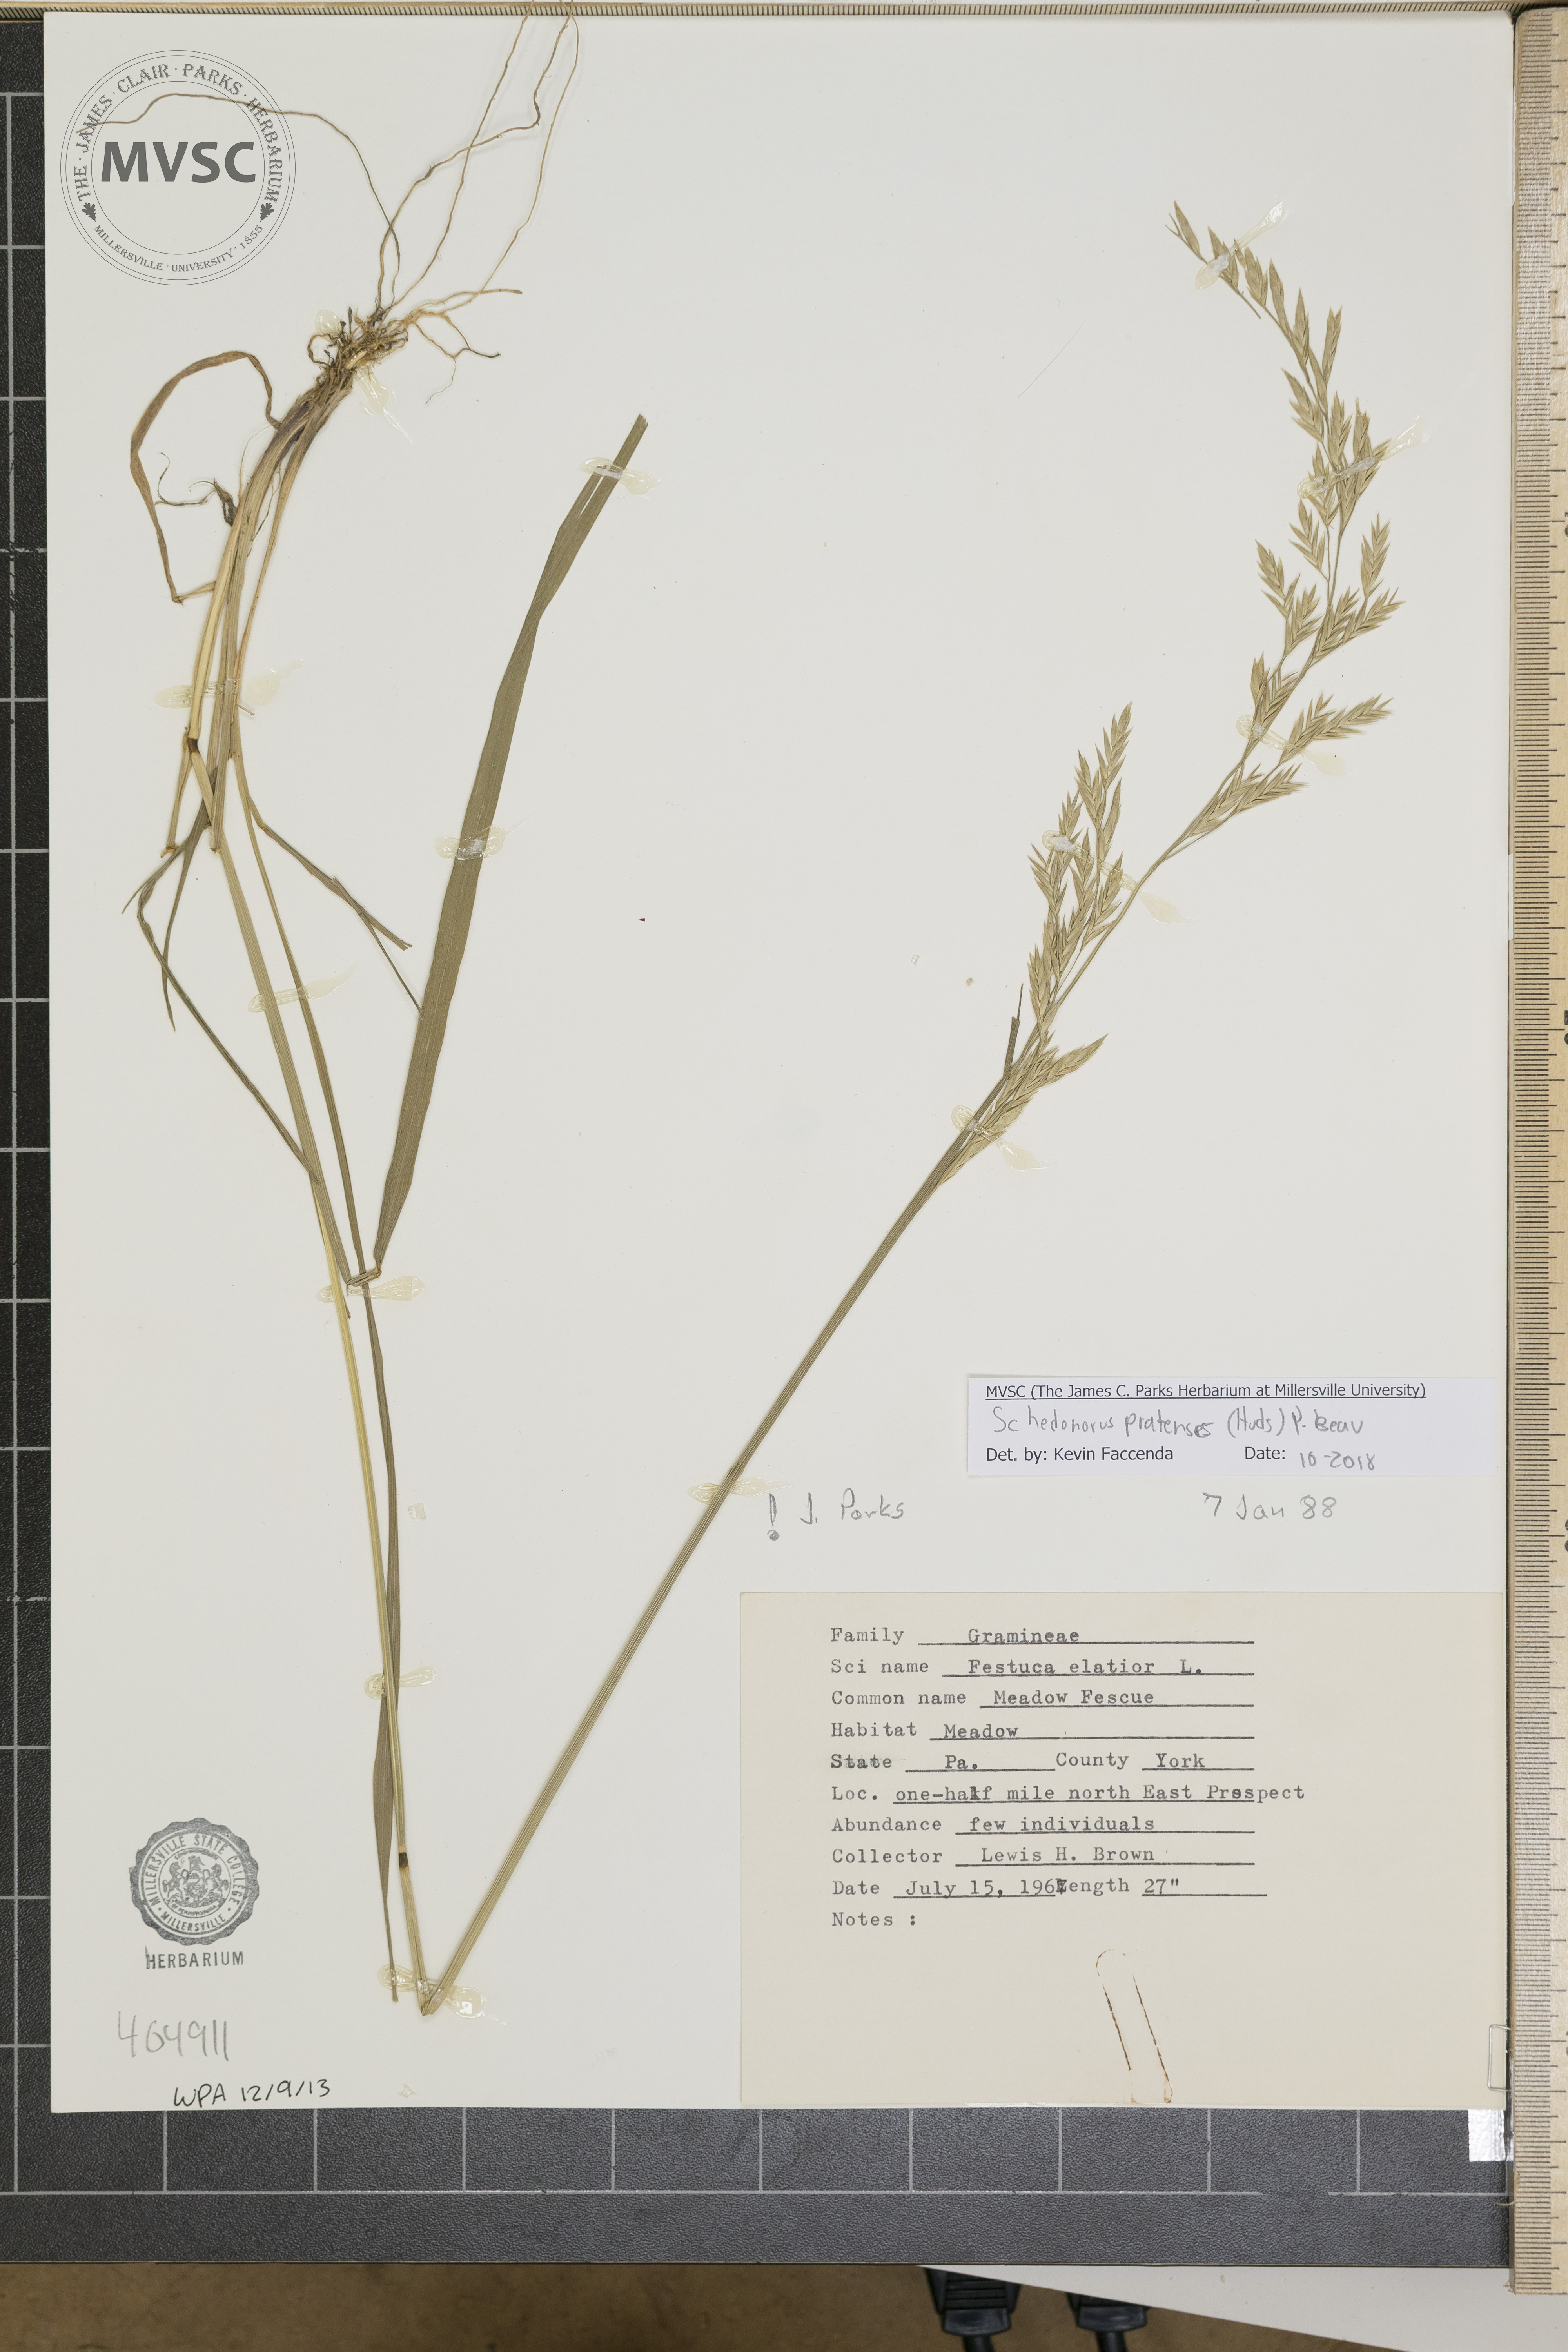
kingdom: Plantae
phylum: Tracheophyta
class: Liliopsida
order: Poales
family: Poaceae
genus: Lolium
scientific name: Lolium pratense
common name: Meadow Fescue
